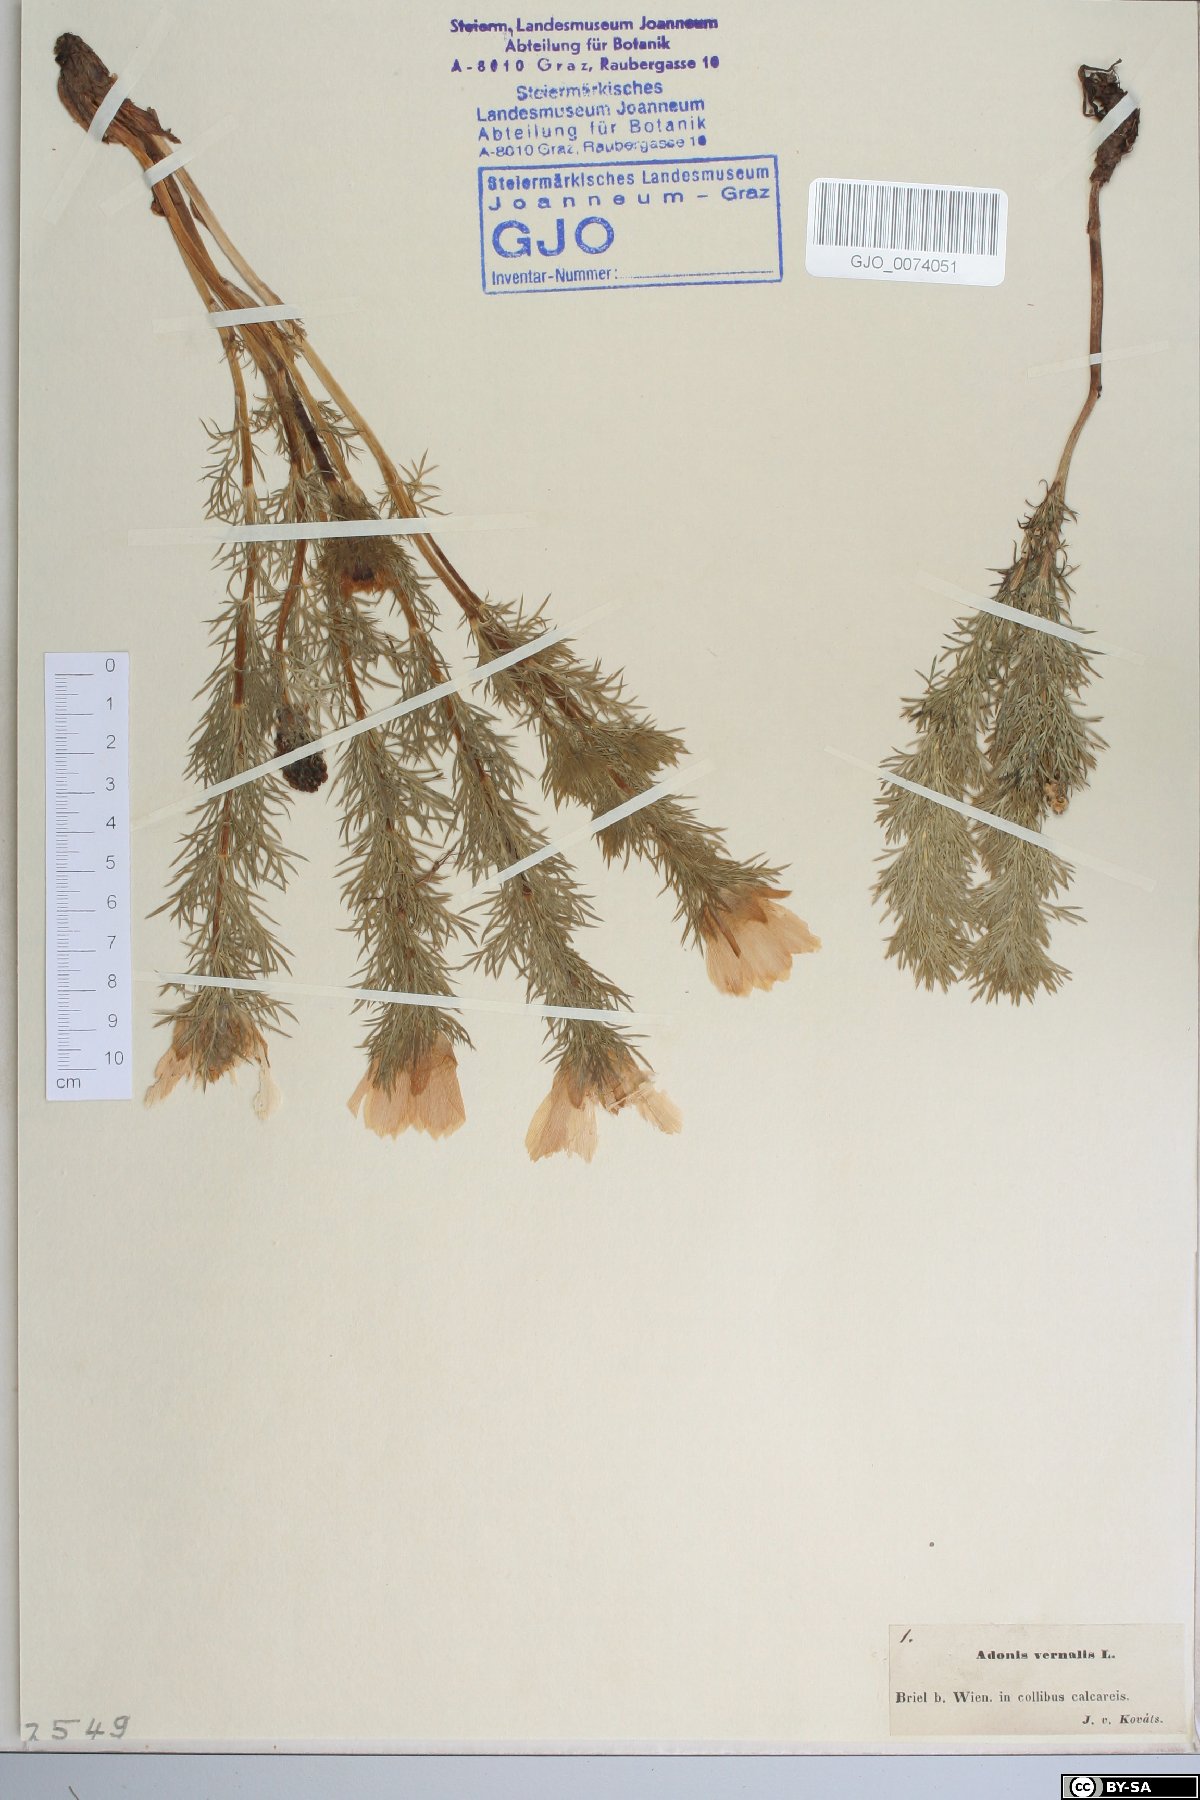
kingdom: Plantae
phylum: Tracheophyta
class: Magnoliopsida
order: Ranunculales
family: Ranunculaceae
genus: Adonis
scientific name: Adonis vernalis
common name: Yellow pheasants-eye
